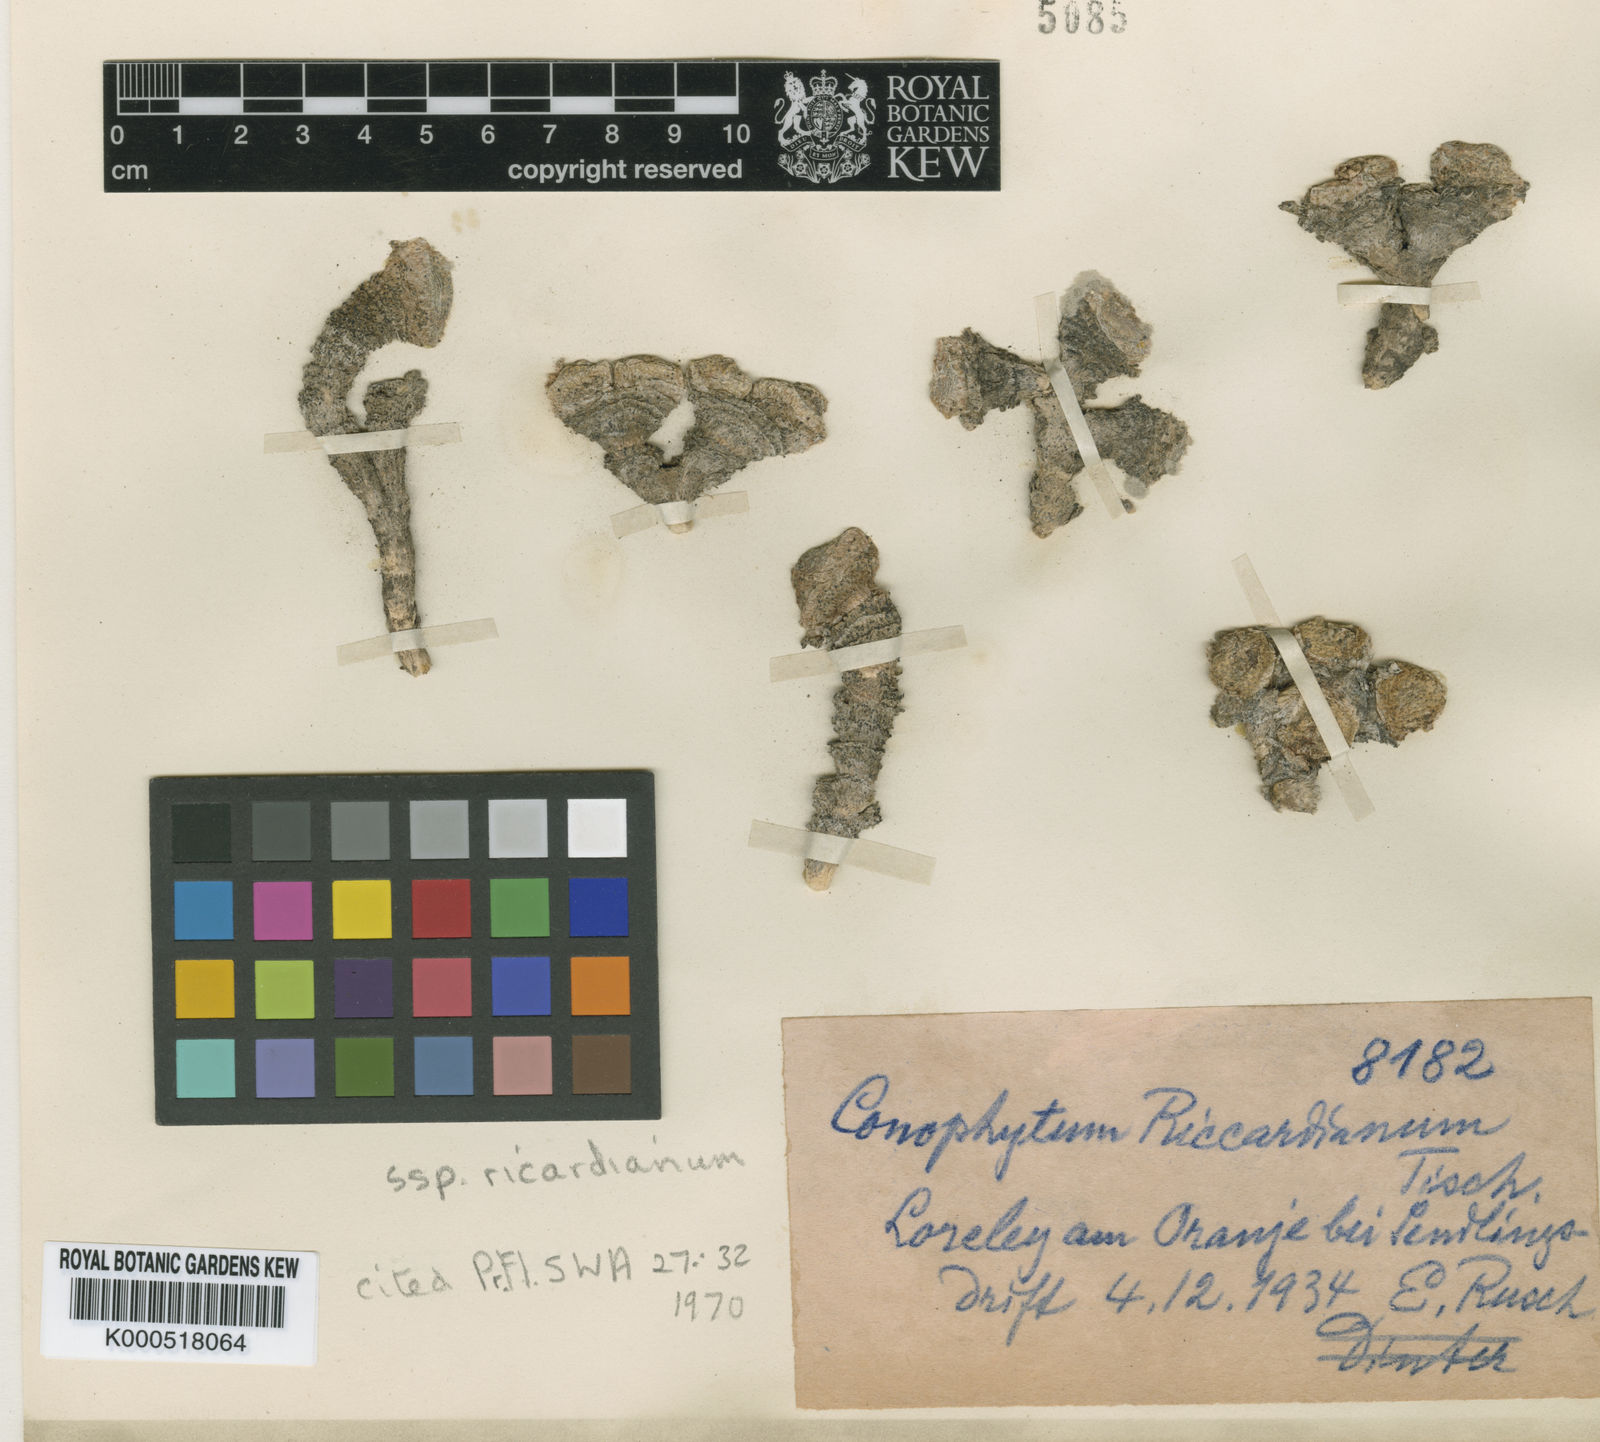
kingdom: Plantae
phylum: Tracheophyta
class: Magnoliopsida
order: Caryophyllales
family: Aizoaceae
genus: Conophytum
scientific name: Conophytum ricardianum
